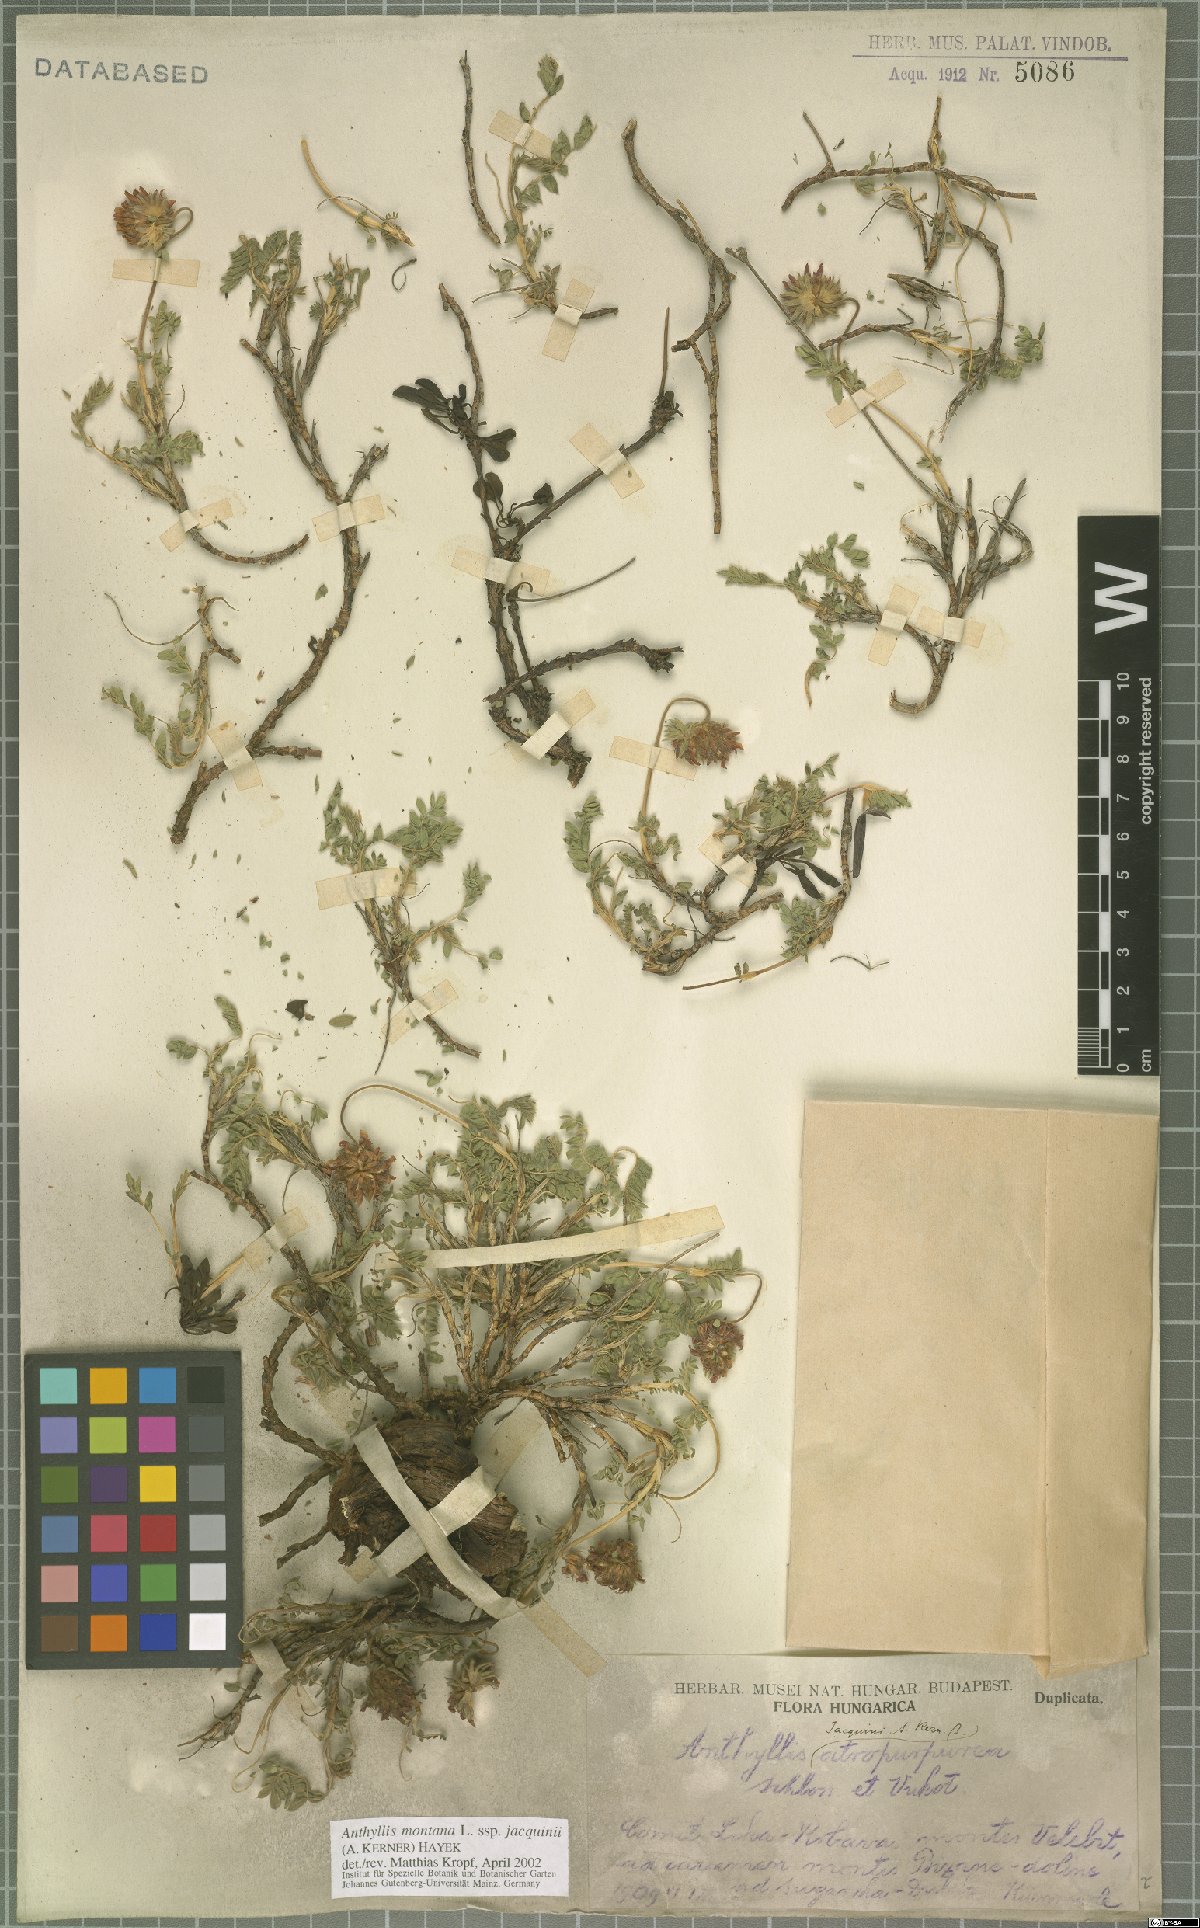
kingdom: Plantae
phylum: Tracheophyta
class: Magnoliopsida
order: Fabales
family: Fabaceae
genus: Anthyllis
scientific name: Anthyllis montana
